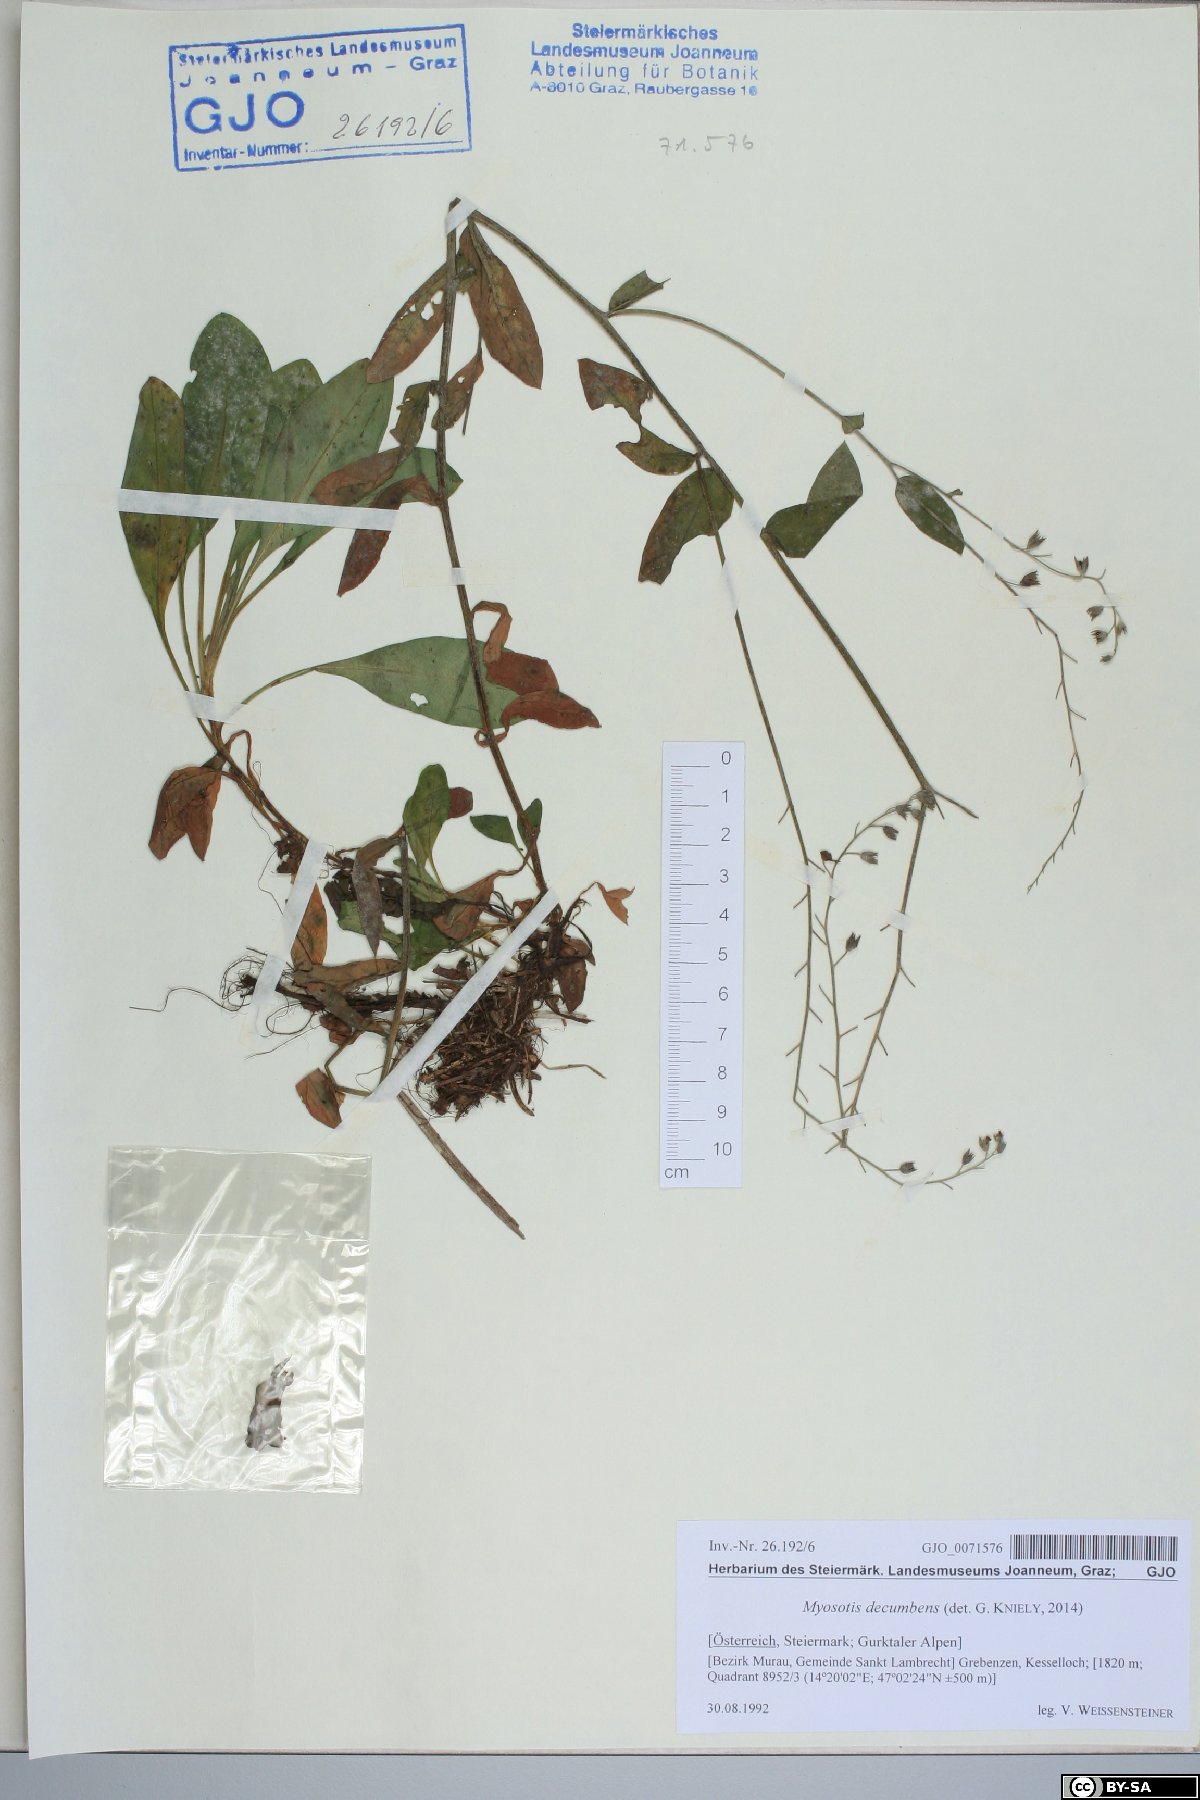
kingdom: Plantae
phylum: Tracheophyta
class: Magnoliopsida
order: Boraginales
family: Boraginaceae
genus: Myosotis
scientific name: Myosotis decumbens
